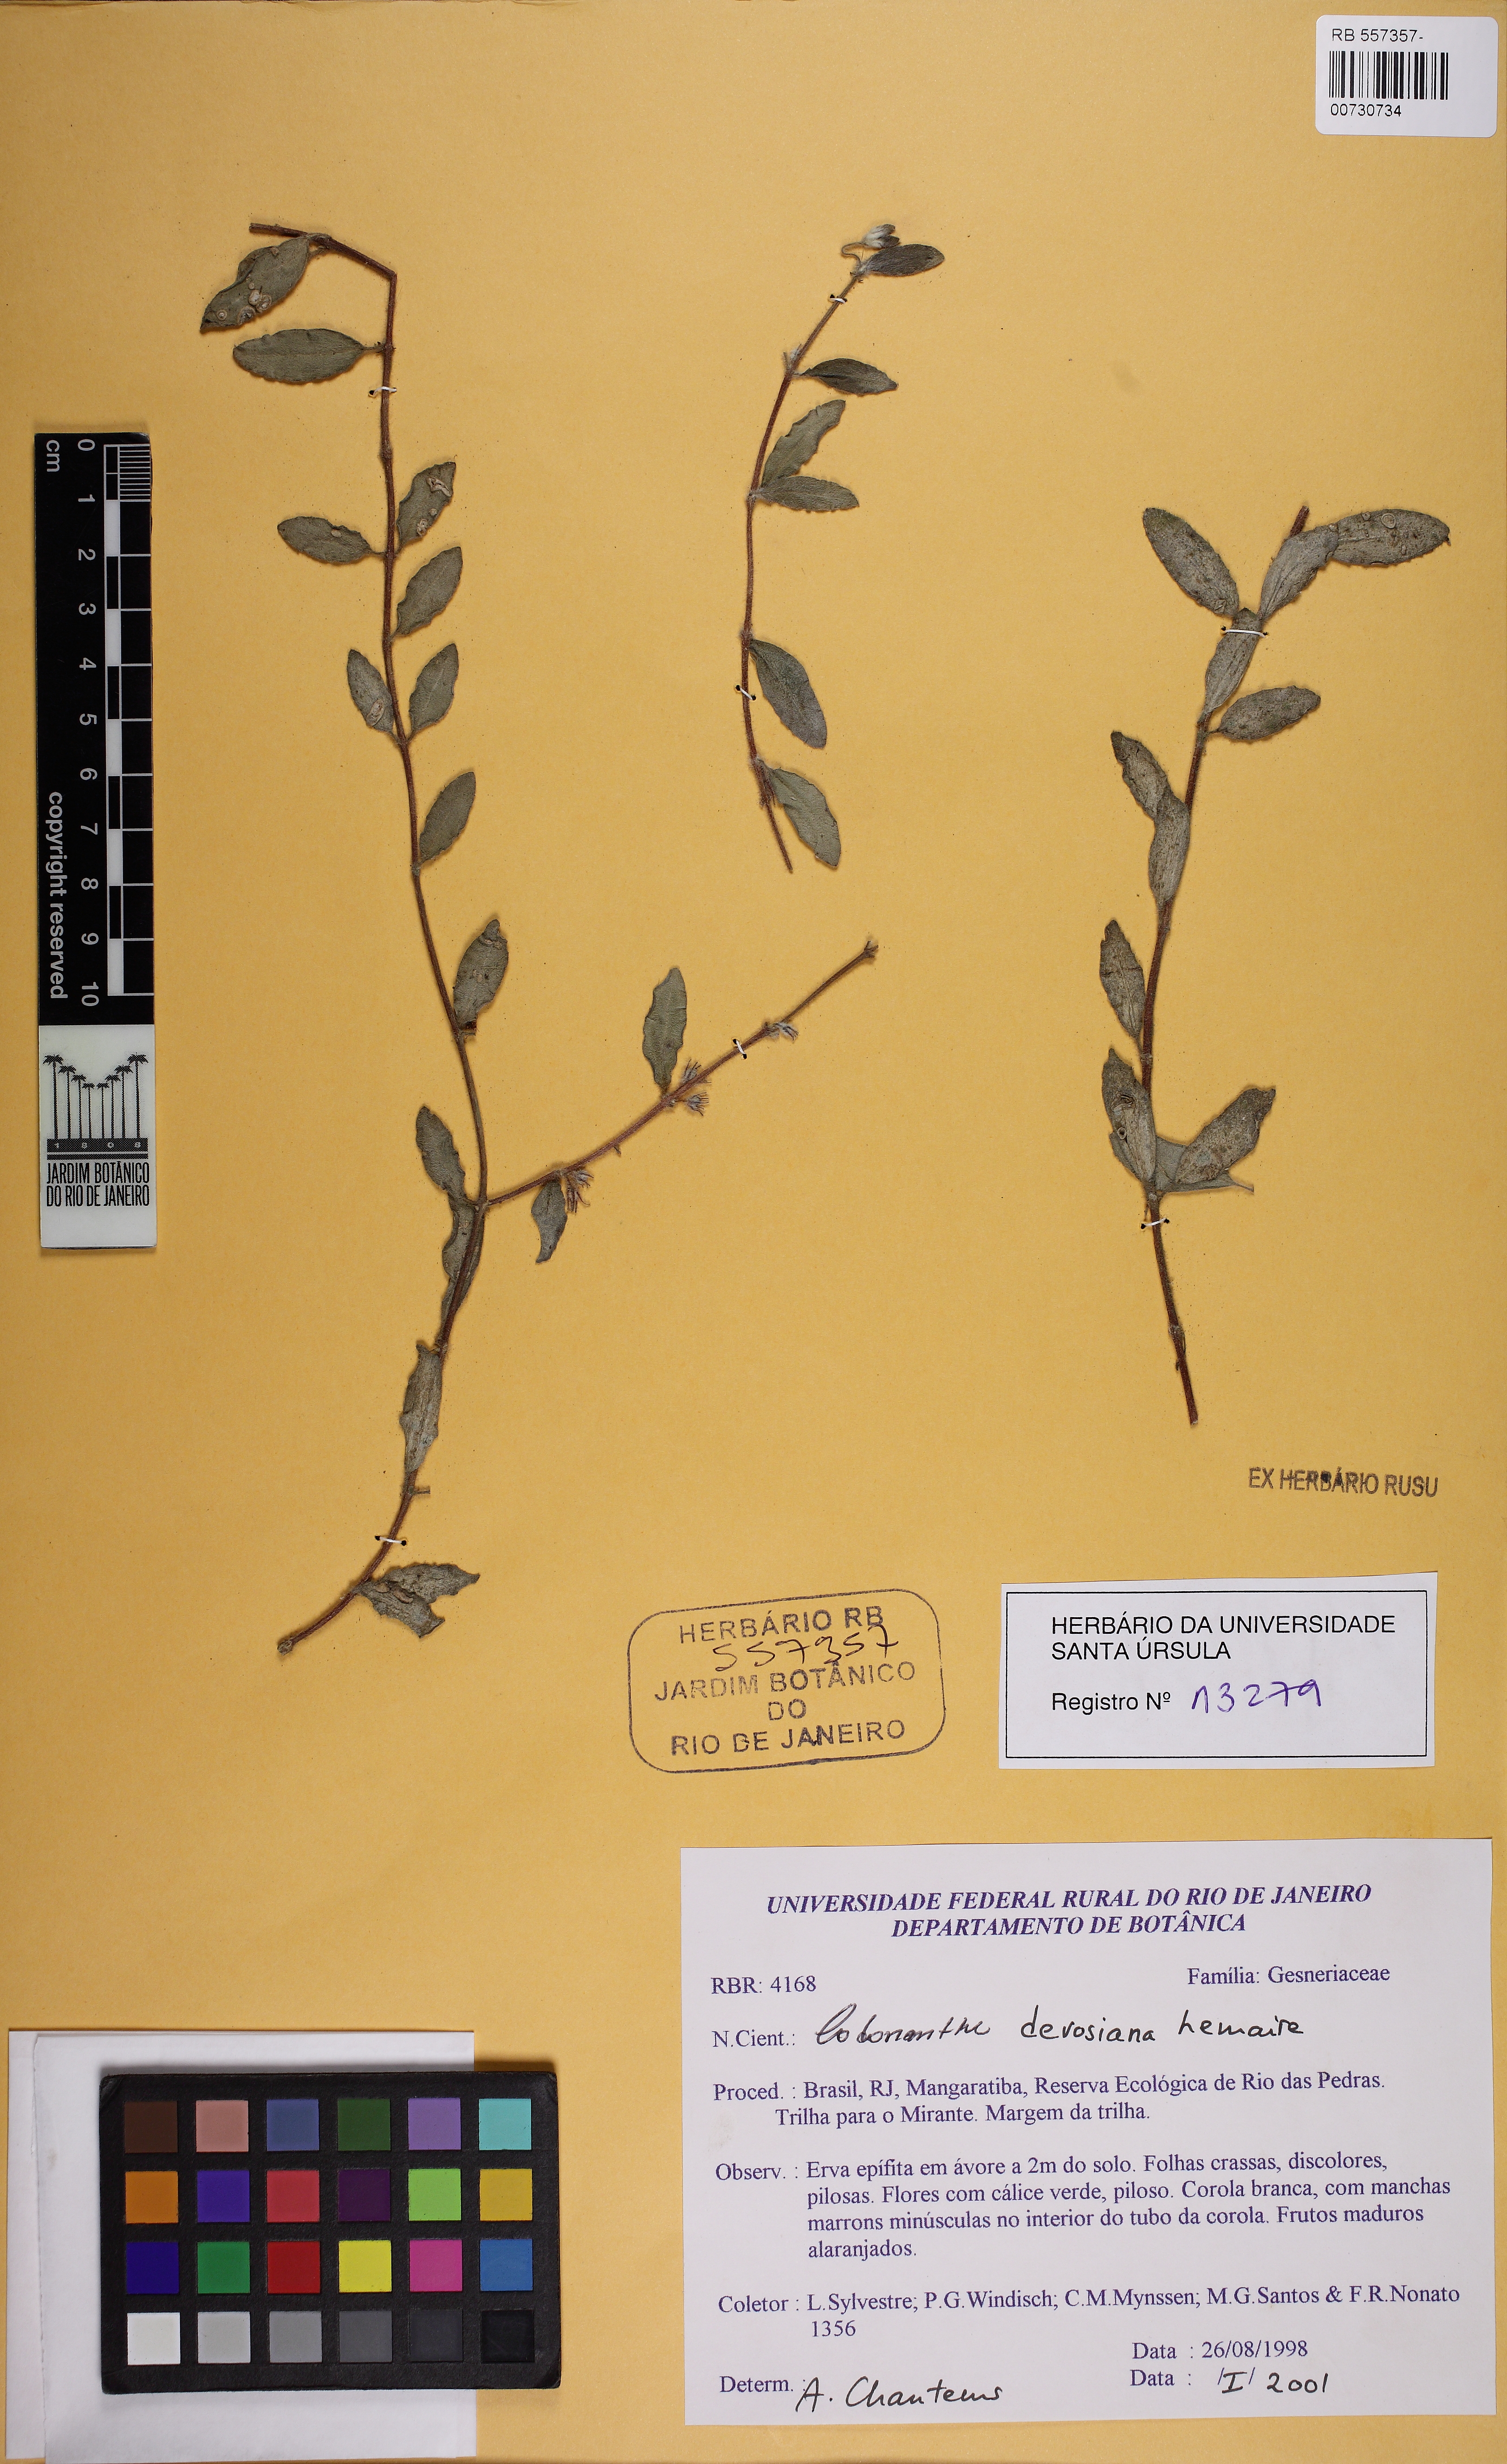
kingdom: Plantae
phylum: Tracheophyta
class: Magnoliopsida
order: Lamiales
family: Gesneriaceae
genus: Codonanthe
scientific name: Codonanthe devosiana
